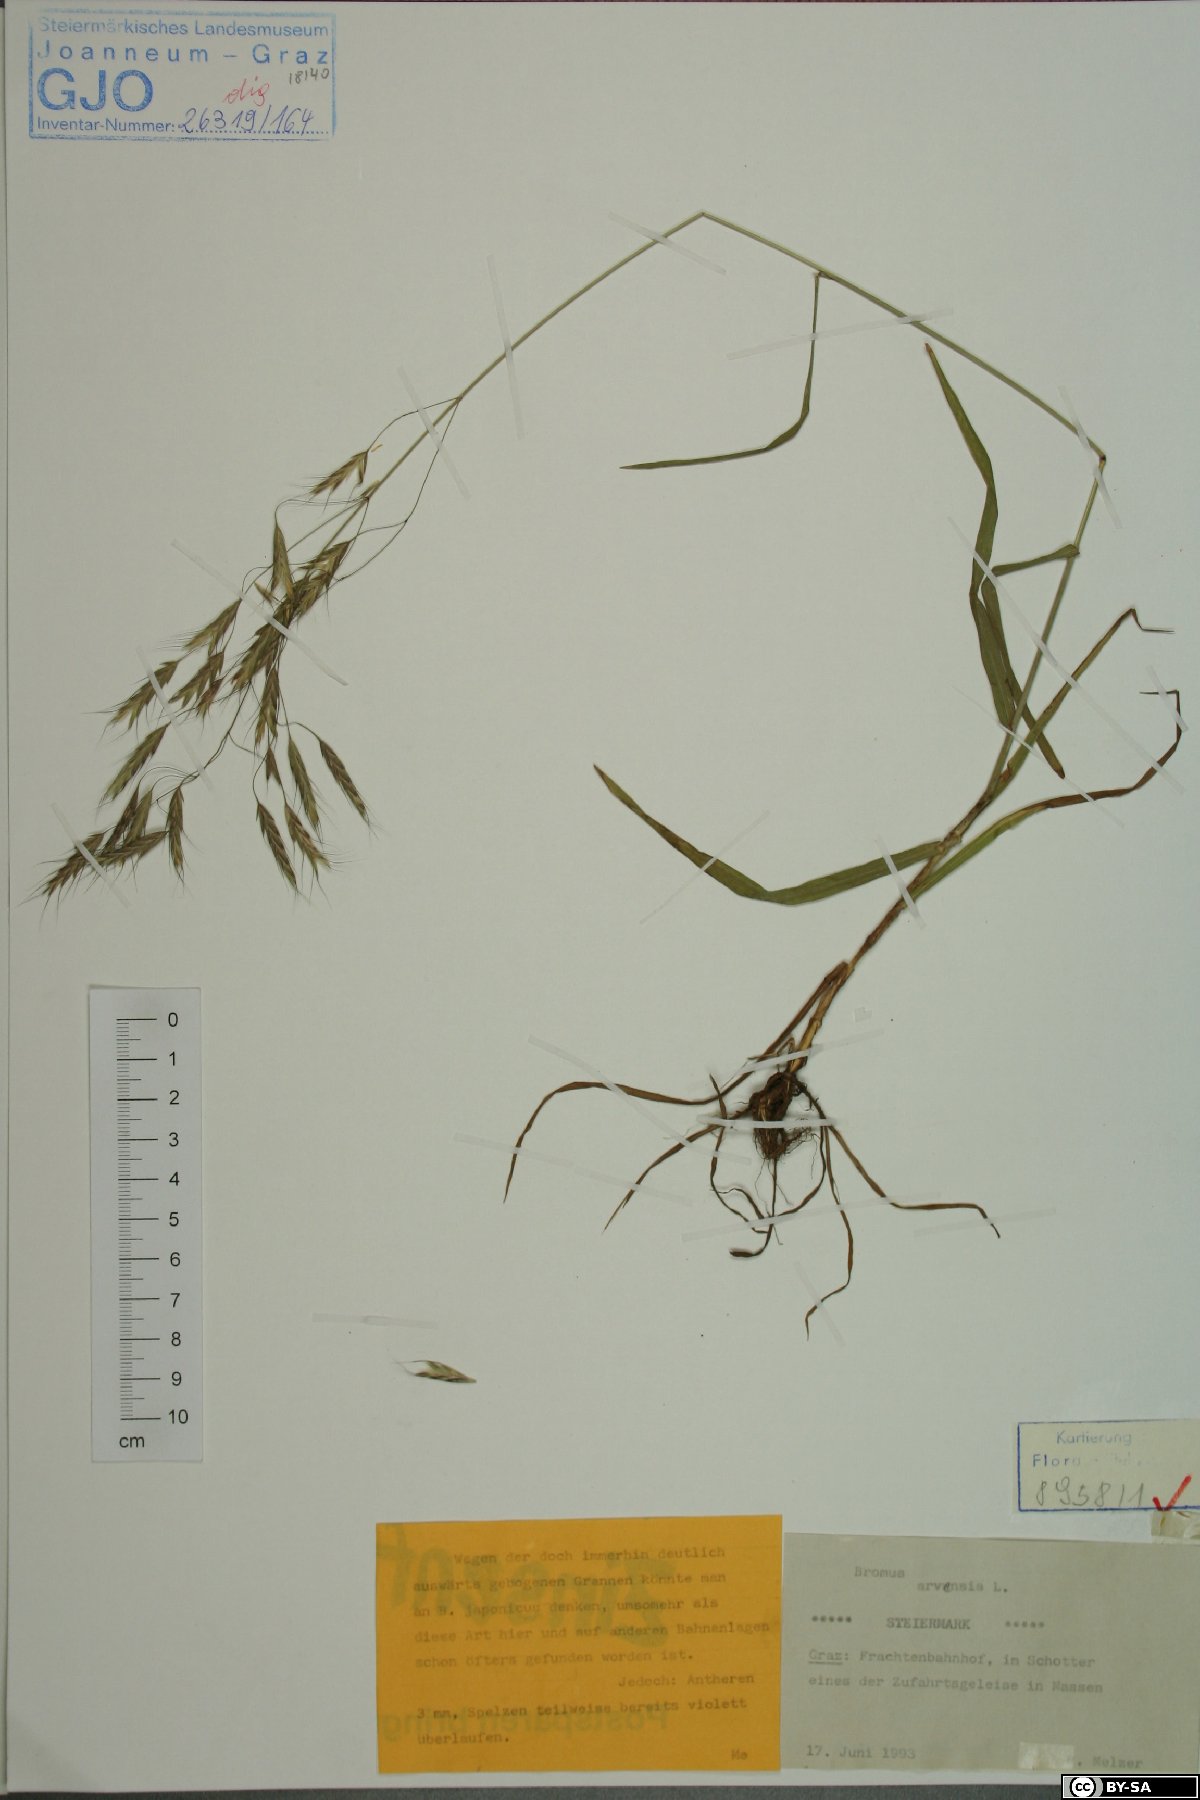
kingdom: Plantae
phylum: Tracheophyta
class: Liliopsida
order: Poales
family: Poaceae
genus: Bromus
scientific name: Bromus arvensis
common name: Field brome
